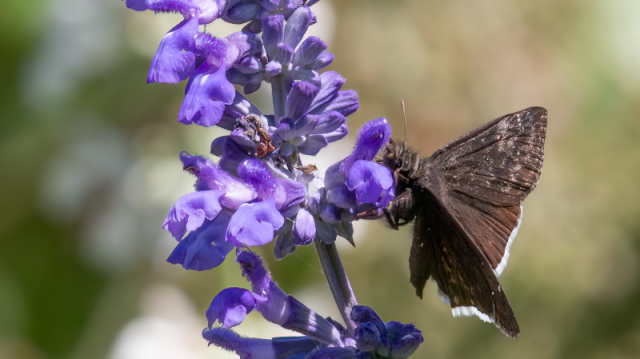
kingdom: Animalia
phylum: Arthropoda
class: Insecta
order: Lepidoptera
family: Hesperiidae
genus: Erynnis
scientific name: Erynnis funeralis
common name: Funereal Duskywing
